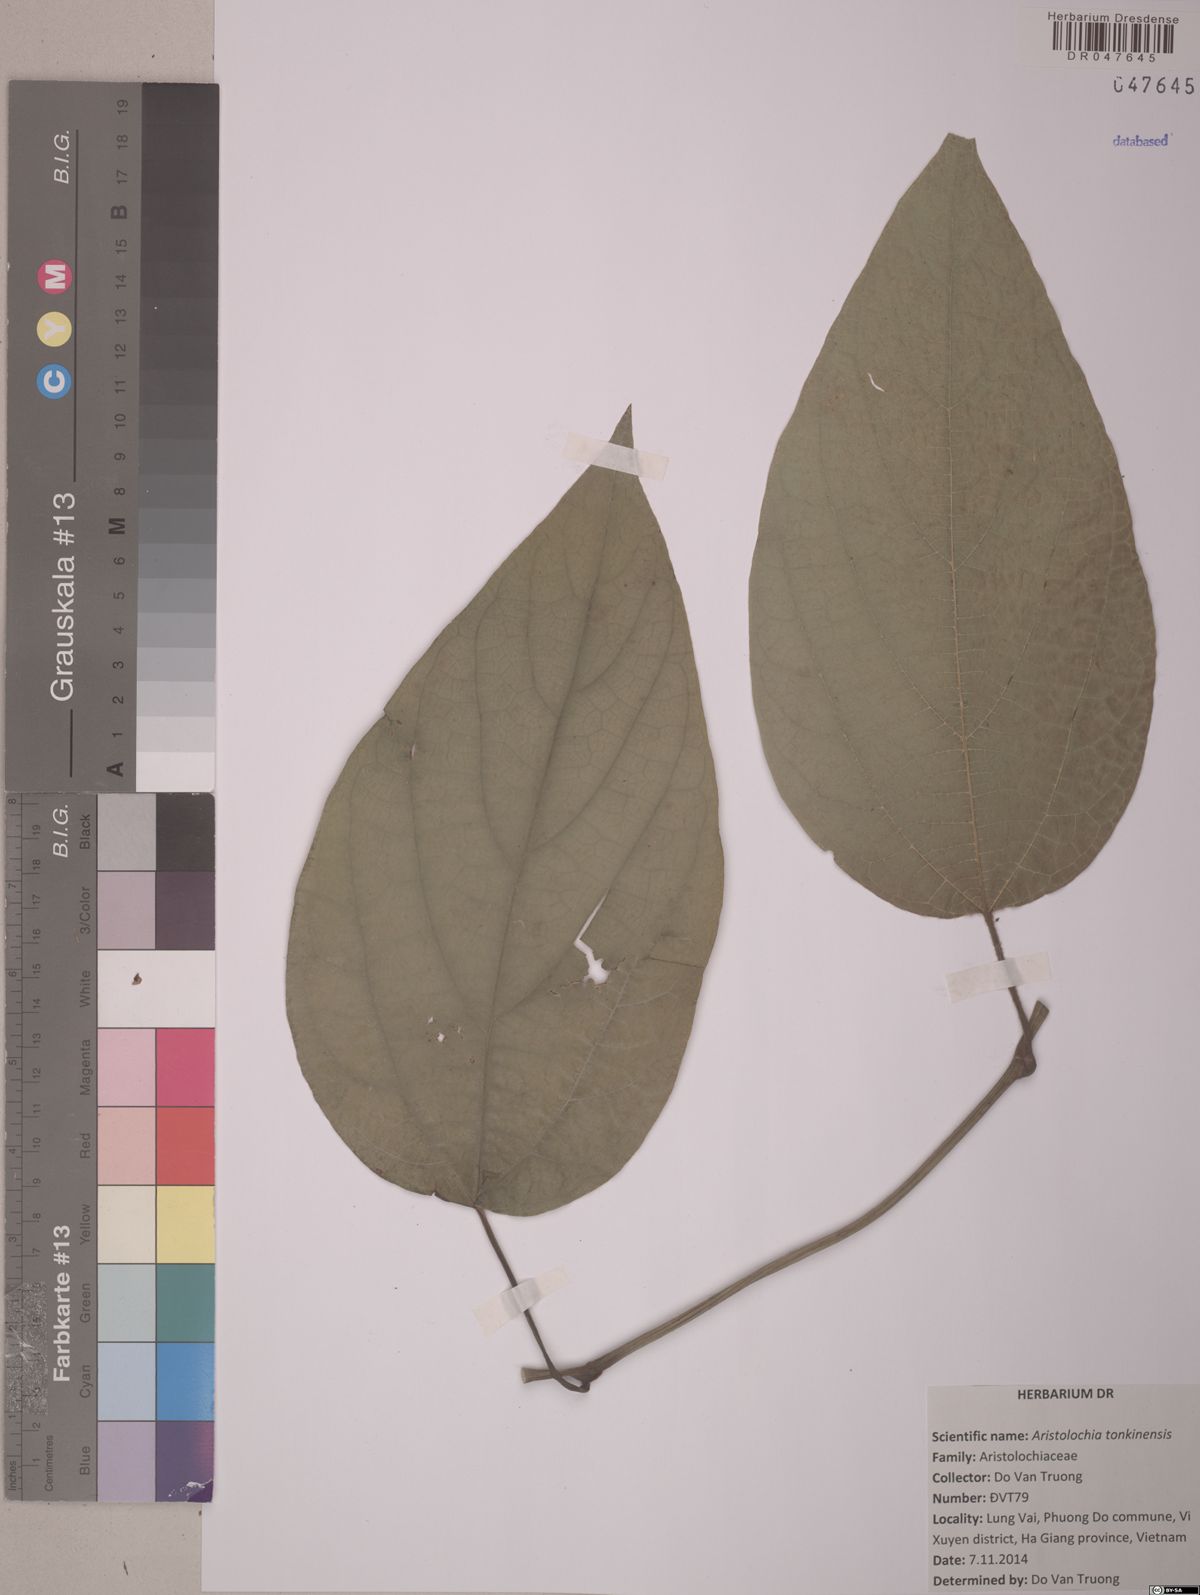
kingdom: Plantae
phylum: Tracheophyta
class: Magnoliopsida
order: Piperales
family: Aristolochiaceae
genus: Isotrema
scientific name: Isotrema tonkinense
